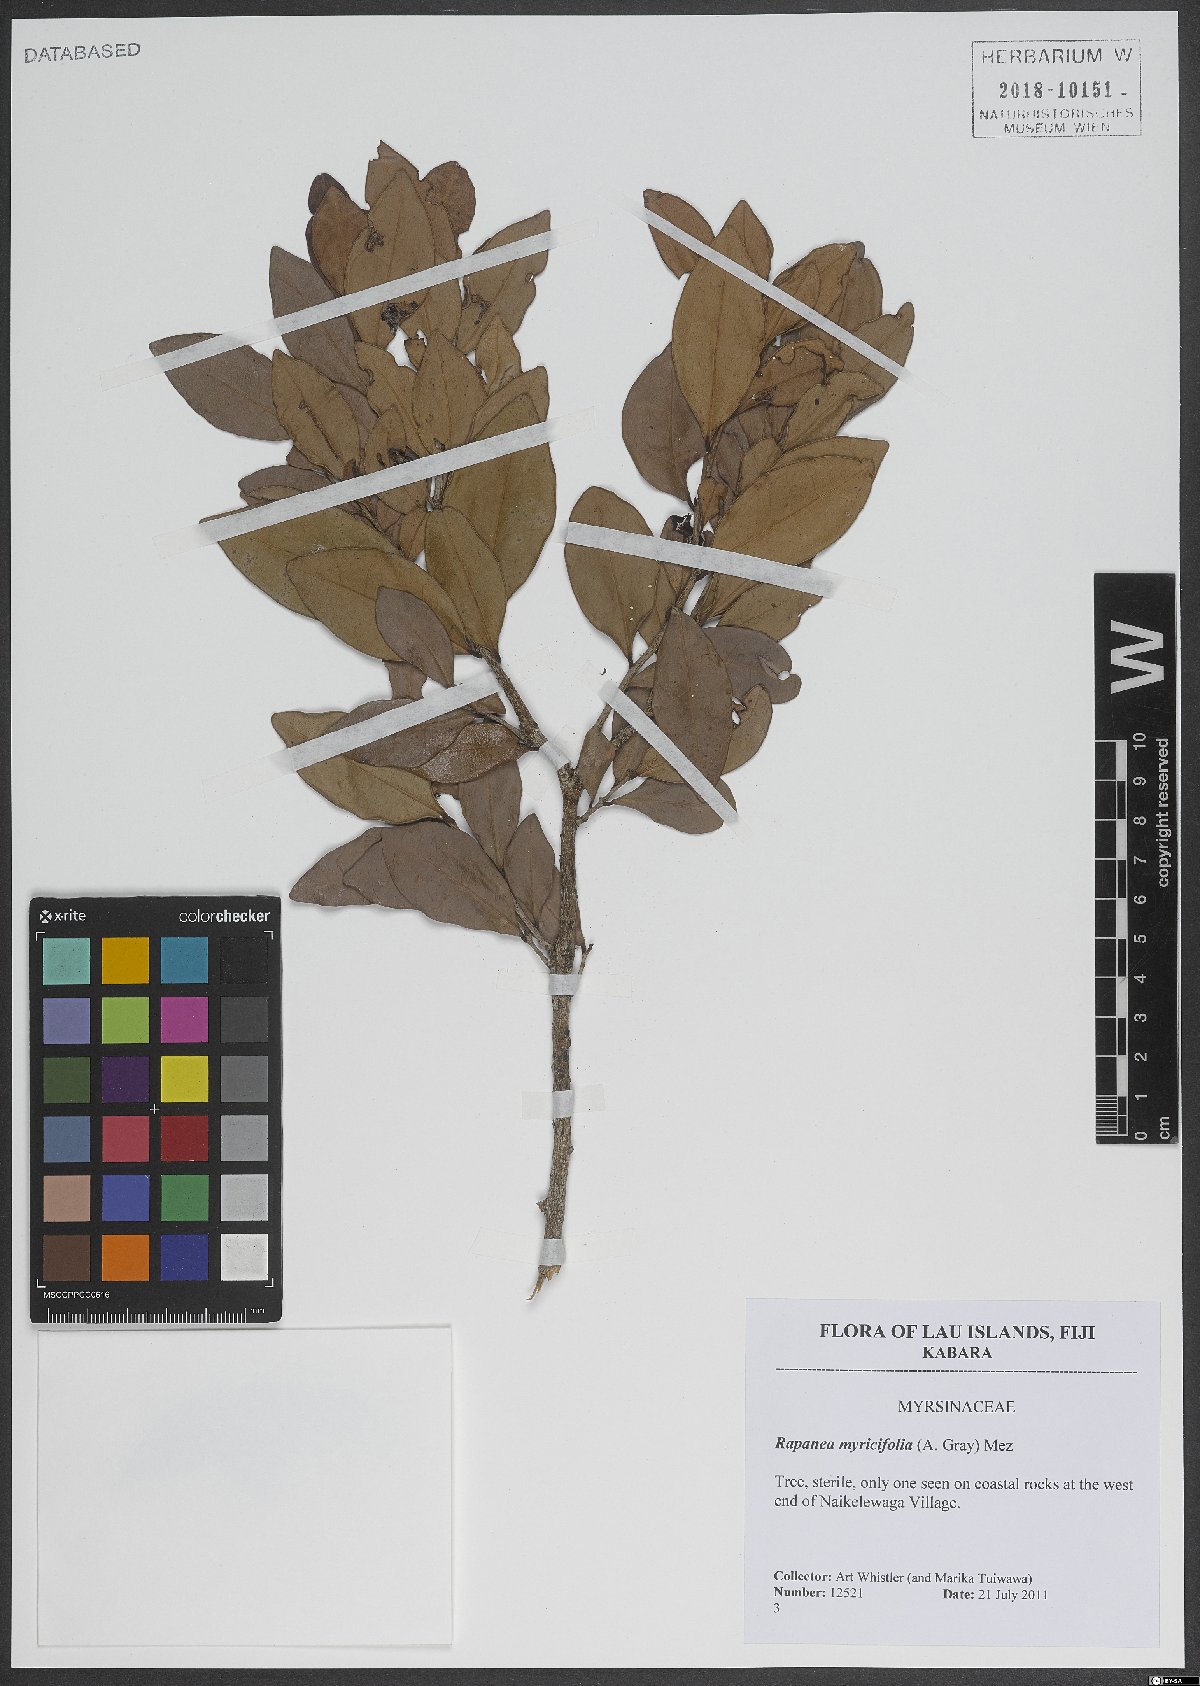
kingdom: Plantae
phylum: Tracheophyta
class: Magnoliopsida
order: Ericales
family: Primulaceae
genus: Myrsine
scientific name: Myrsine myricifolia
